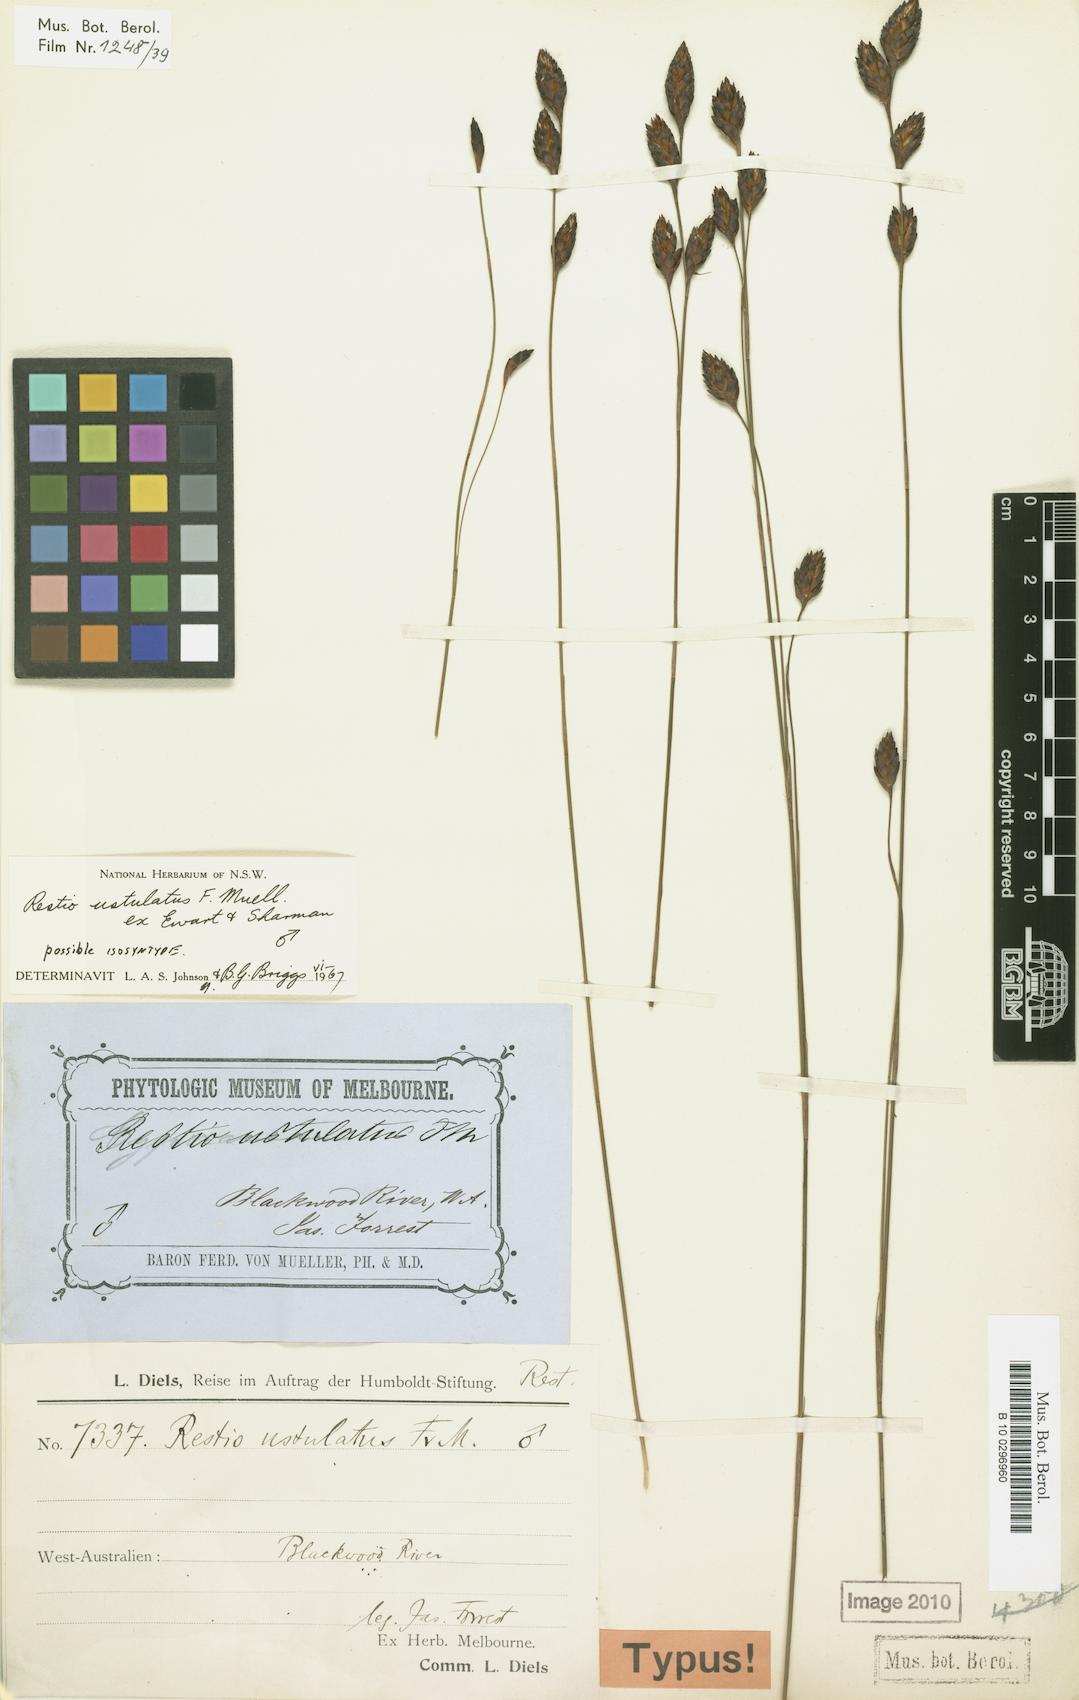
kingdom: Plantae
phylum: Tracheophyta
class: Liliopsida
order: Poales
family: Restionaceae
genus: Melanostachya
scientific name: Melanostachya ustulata
